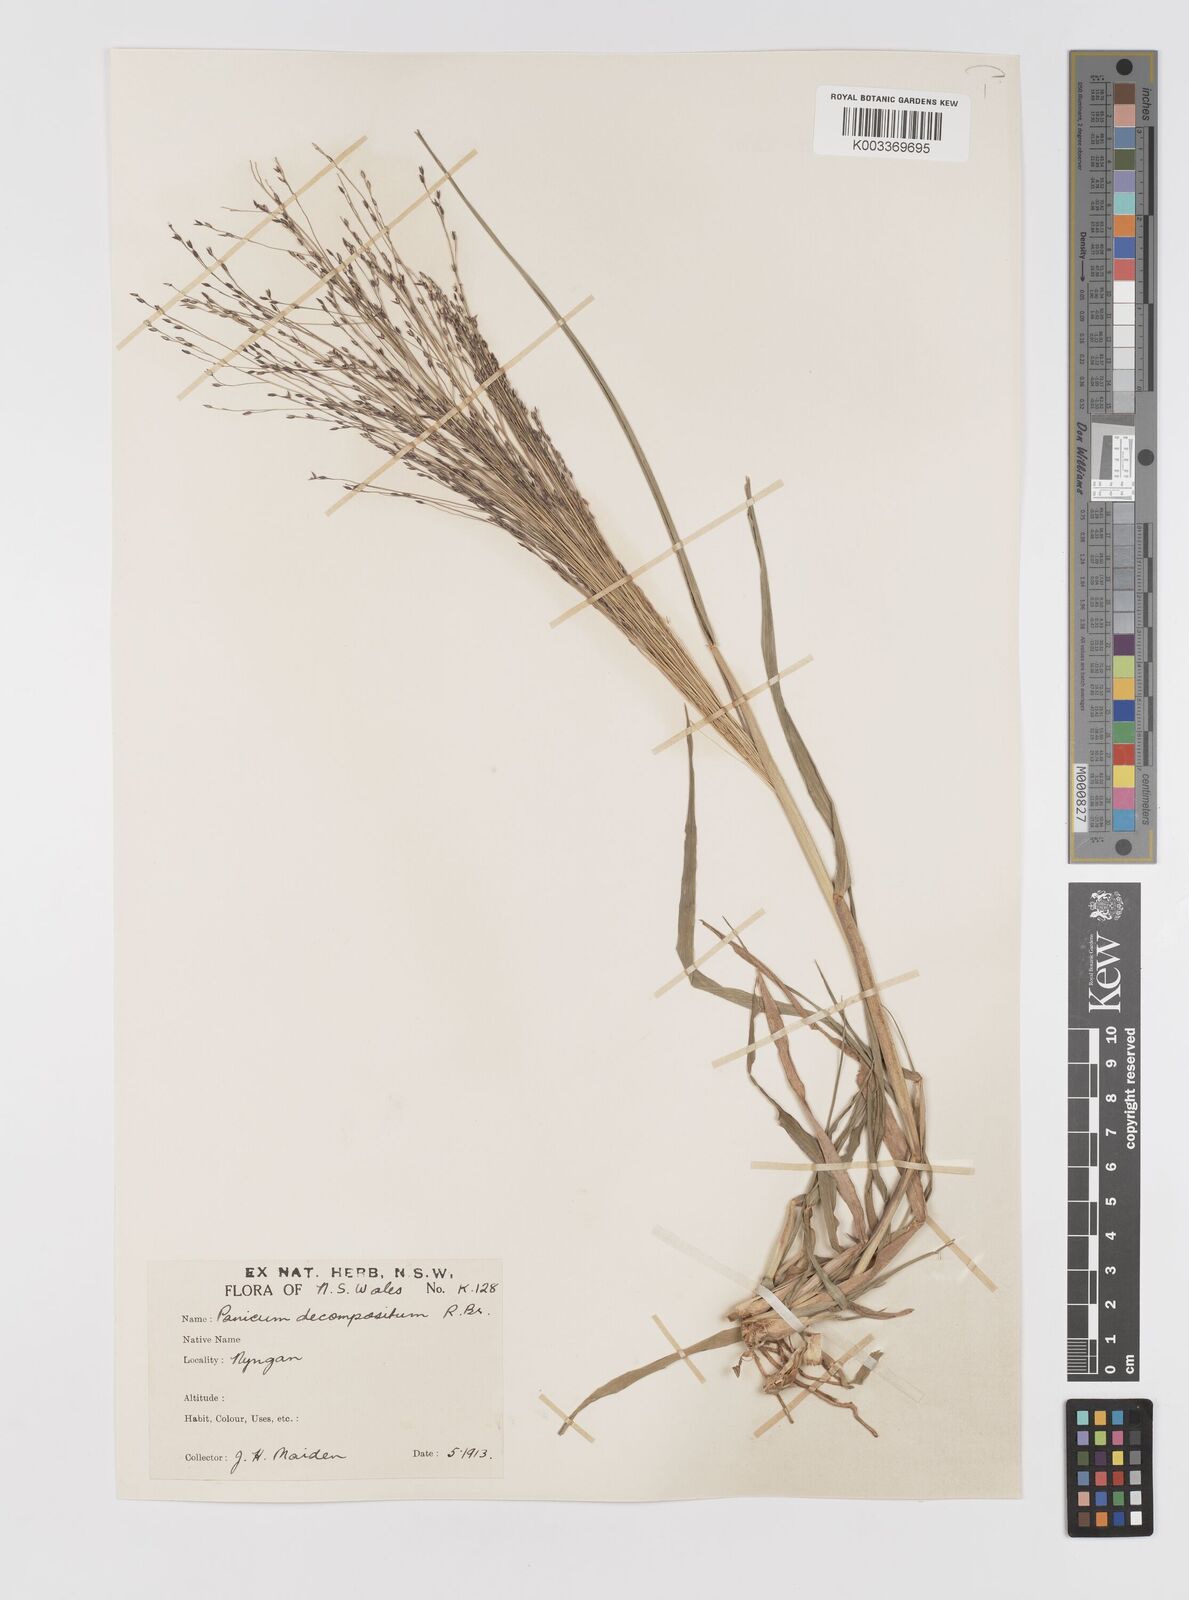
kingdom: Plantae
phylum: Tracheophyta
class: Liliopsida
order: Poales
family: Poaceae
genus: Panicum
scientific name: Panicum decompositum
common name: Australian millet
